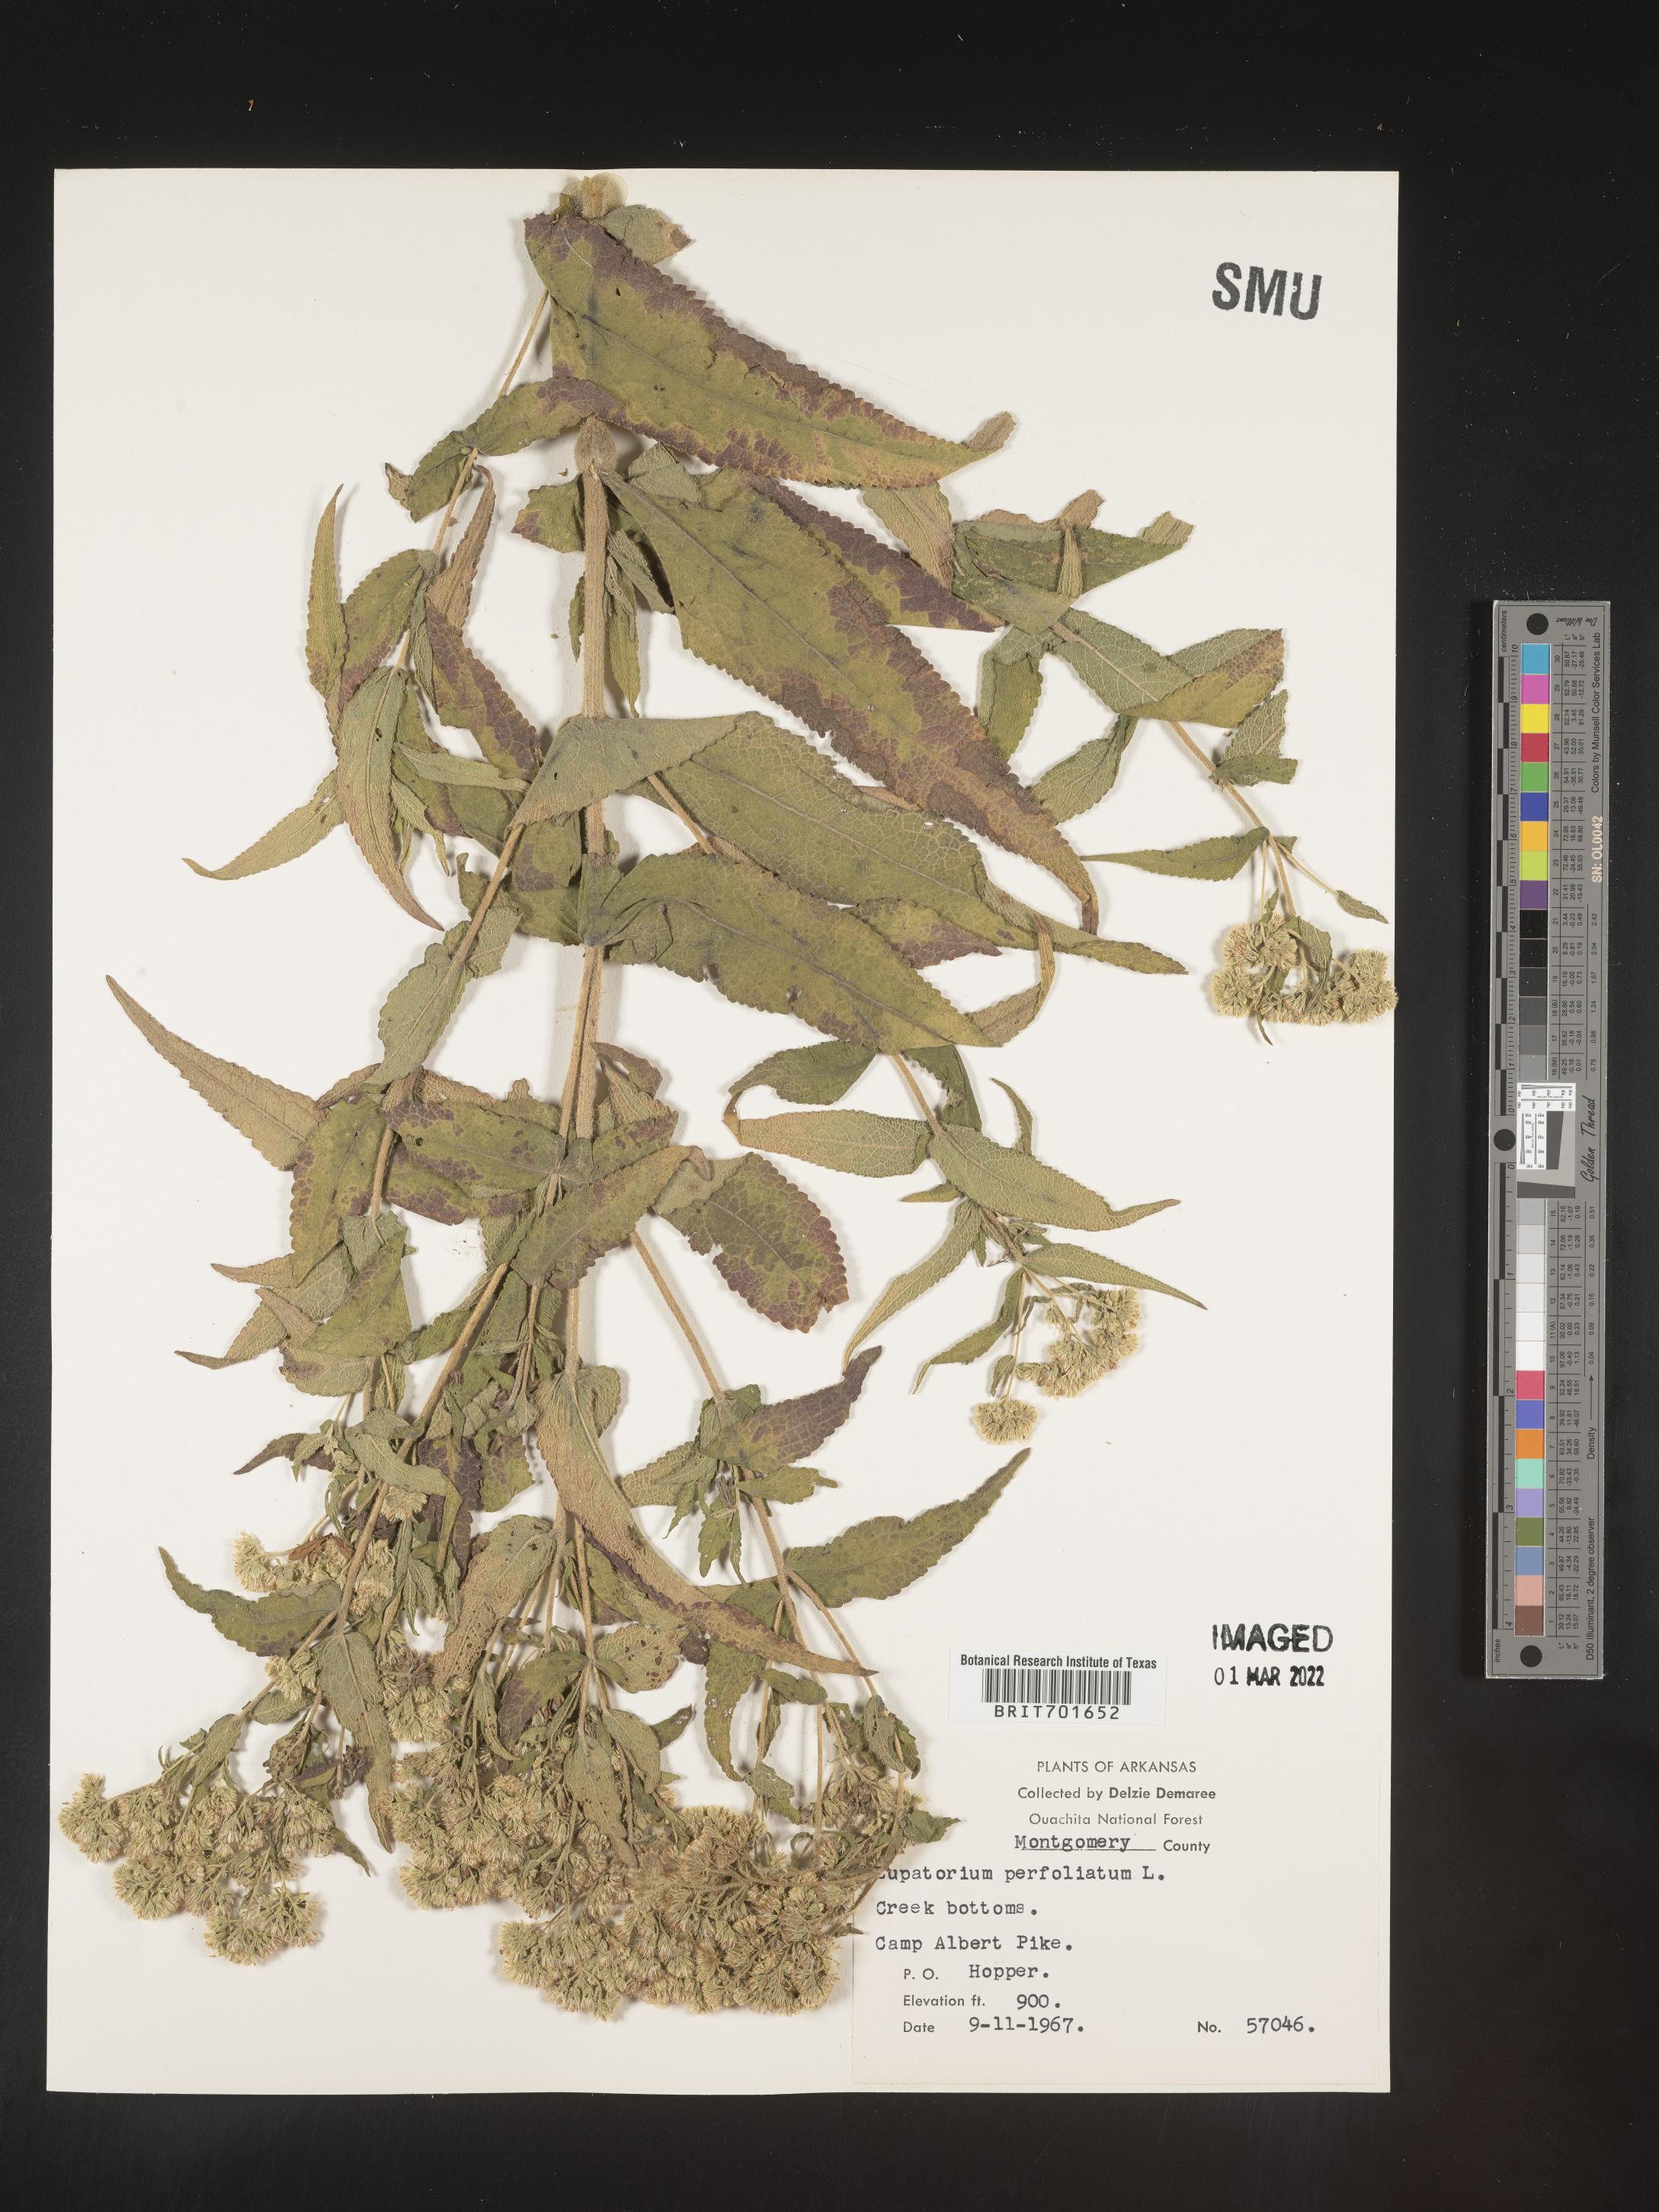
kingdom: Plantae
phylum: Tracheophyta
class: Magnoliopsida
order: Asterales
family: Asteraceae
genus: Eupatorium
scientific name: Eupatorium perfoliatum
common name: Boneset
